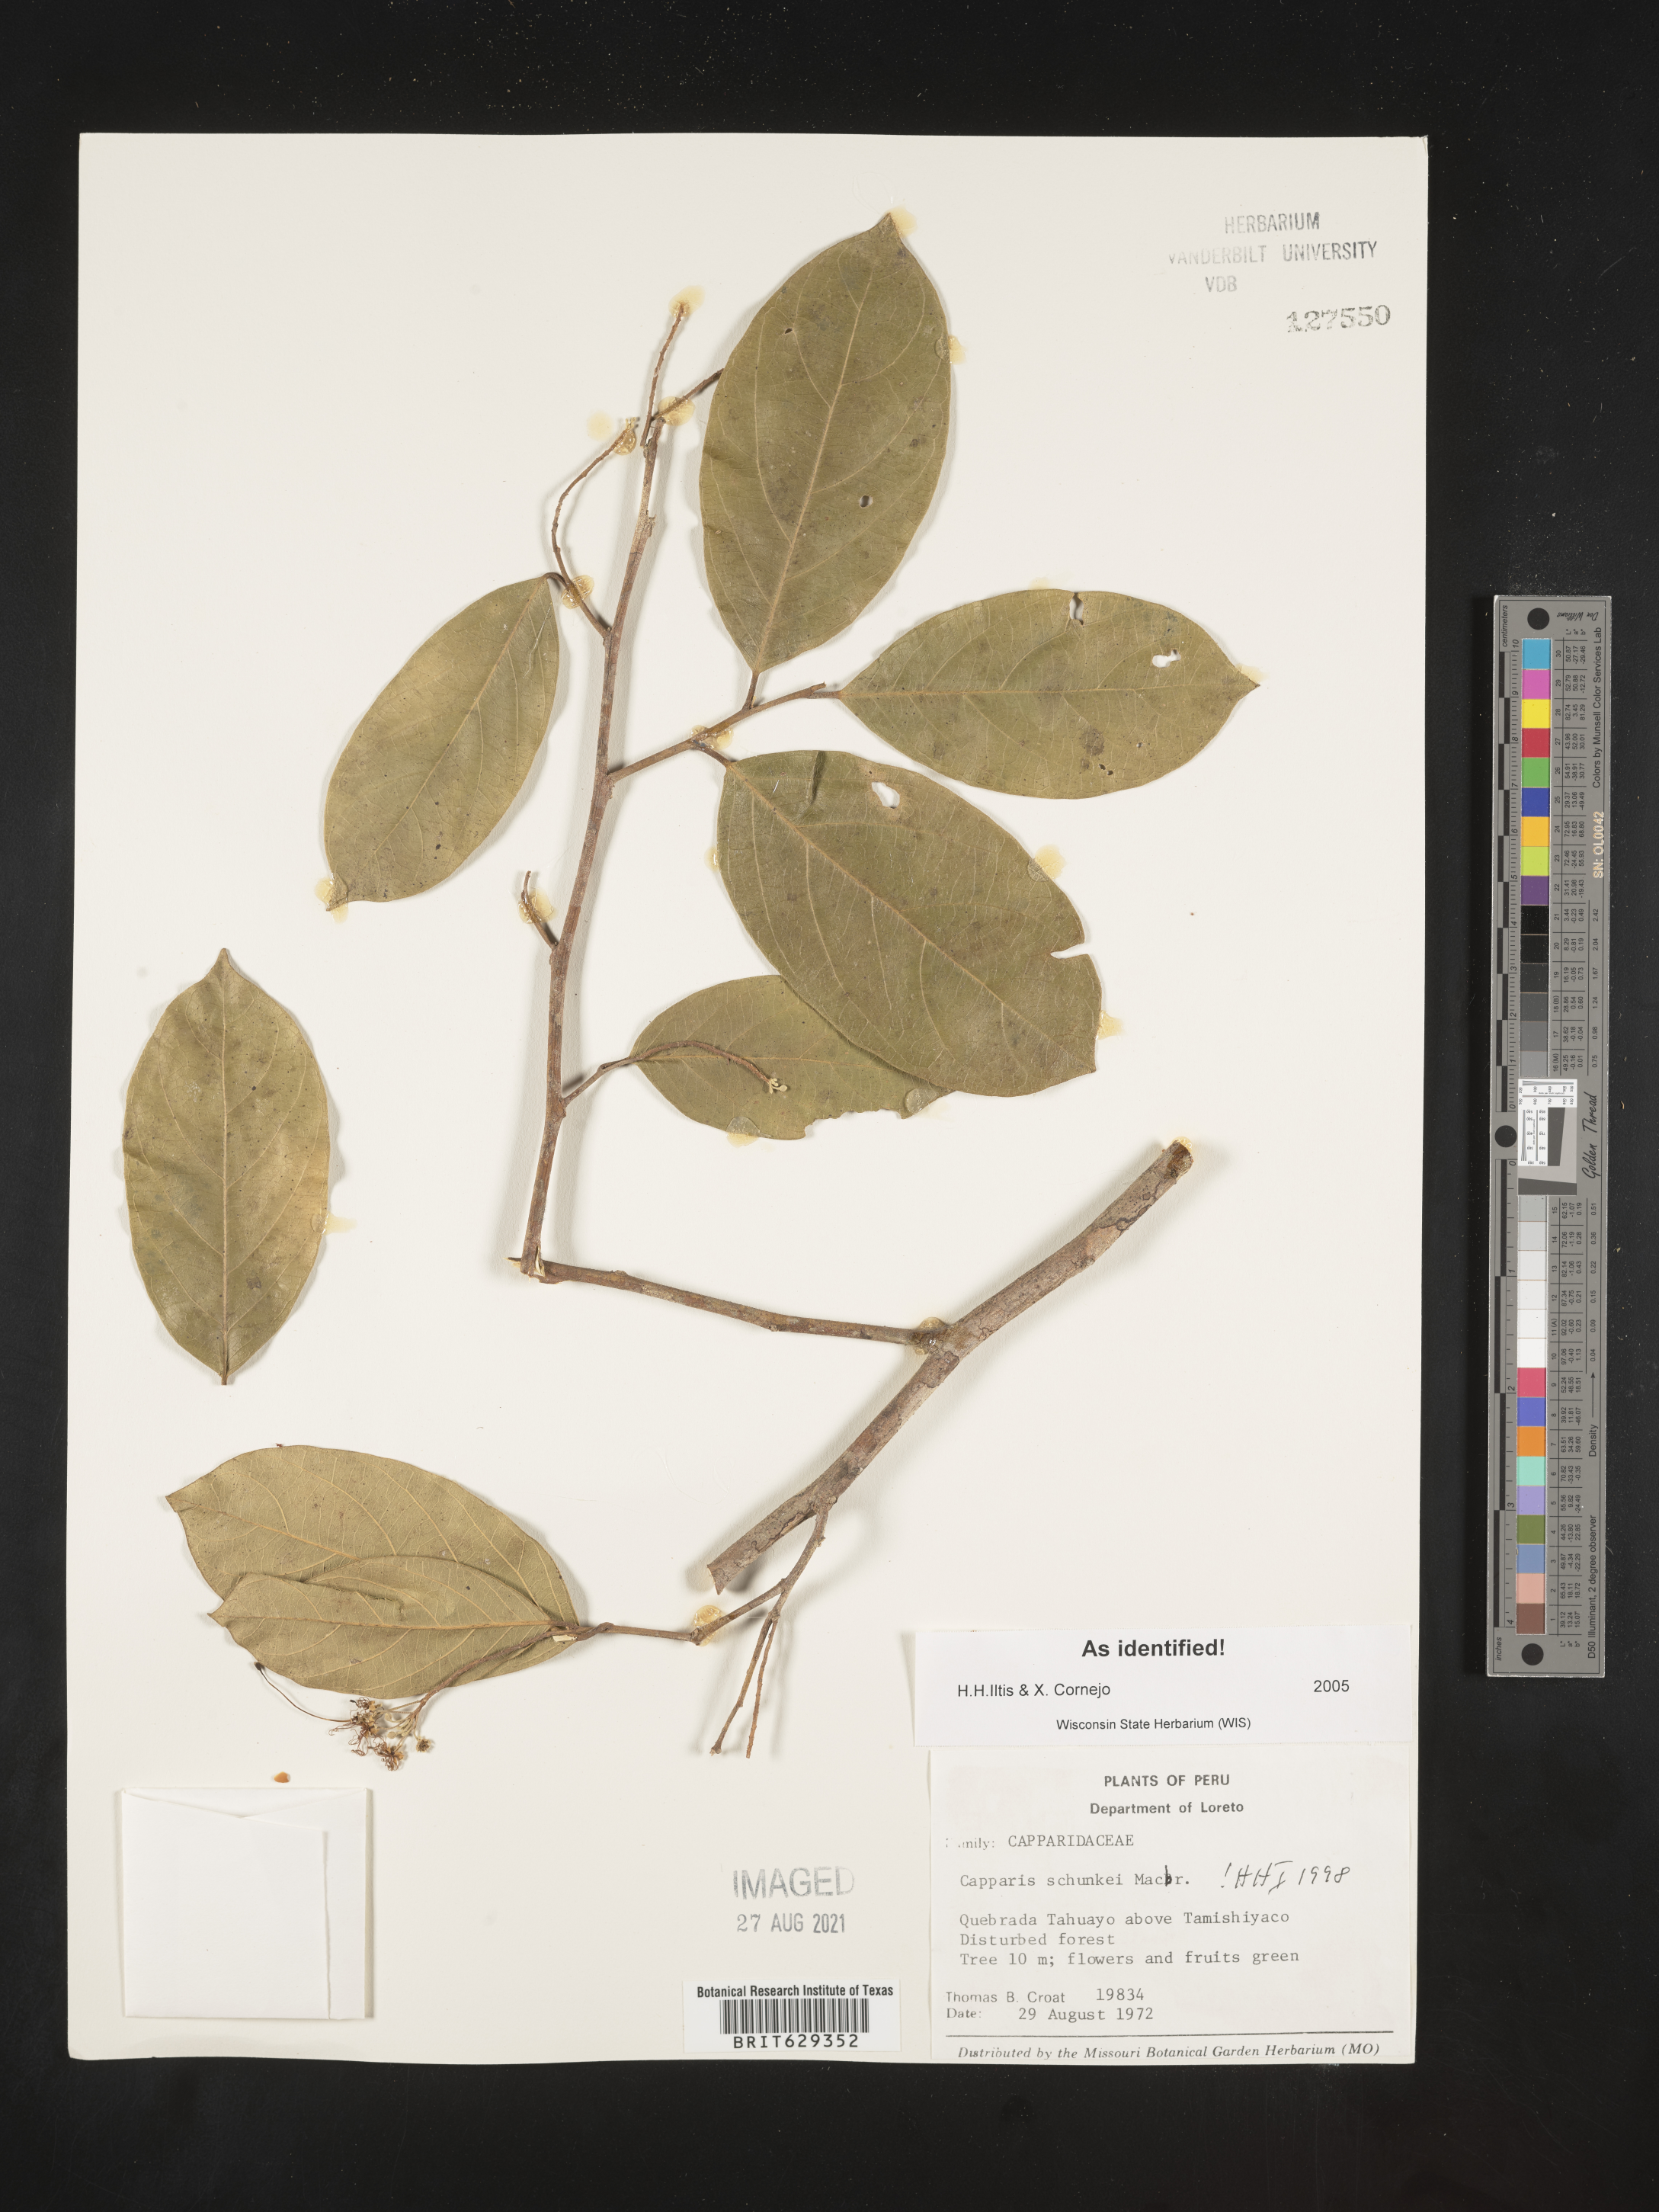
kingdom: Plantae
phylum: Tracheophyta
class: Magnoliopsida
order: Brassicales
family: Capparaceae
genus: Preslianthus
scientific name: Preslianthus detonsus
